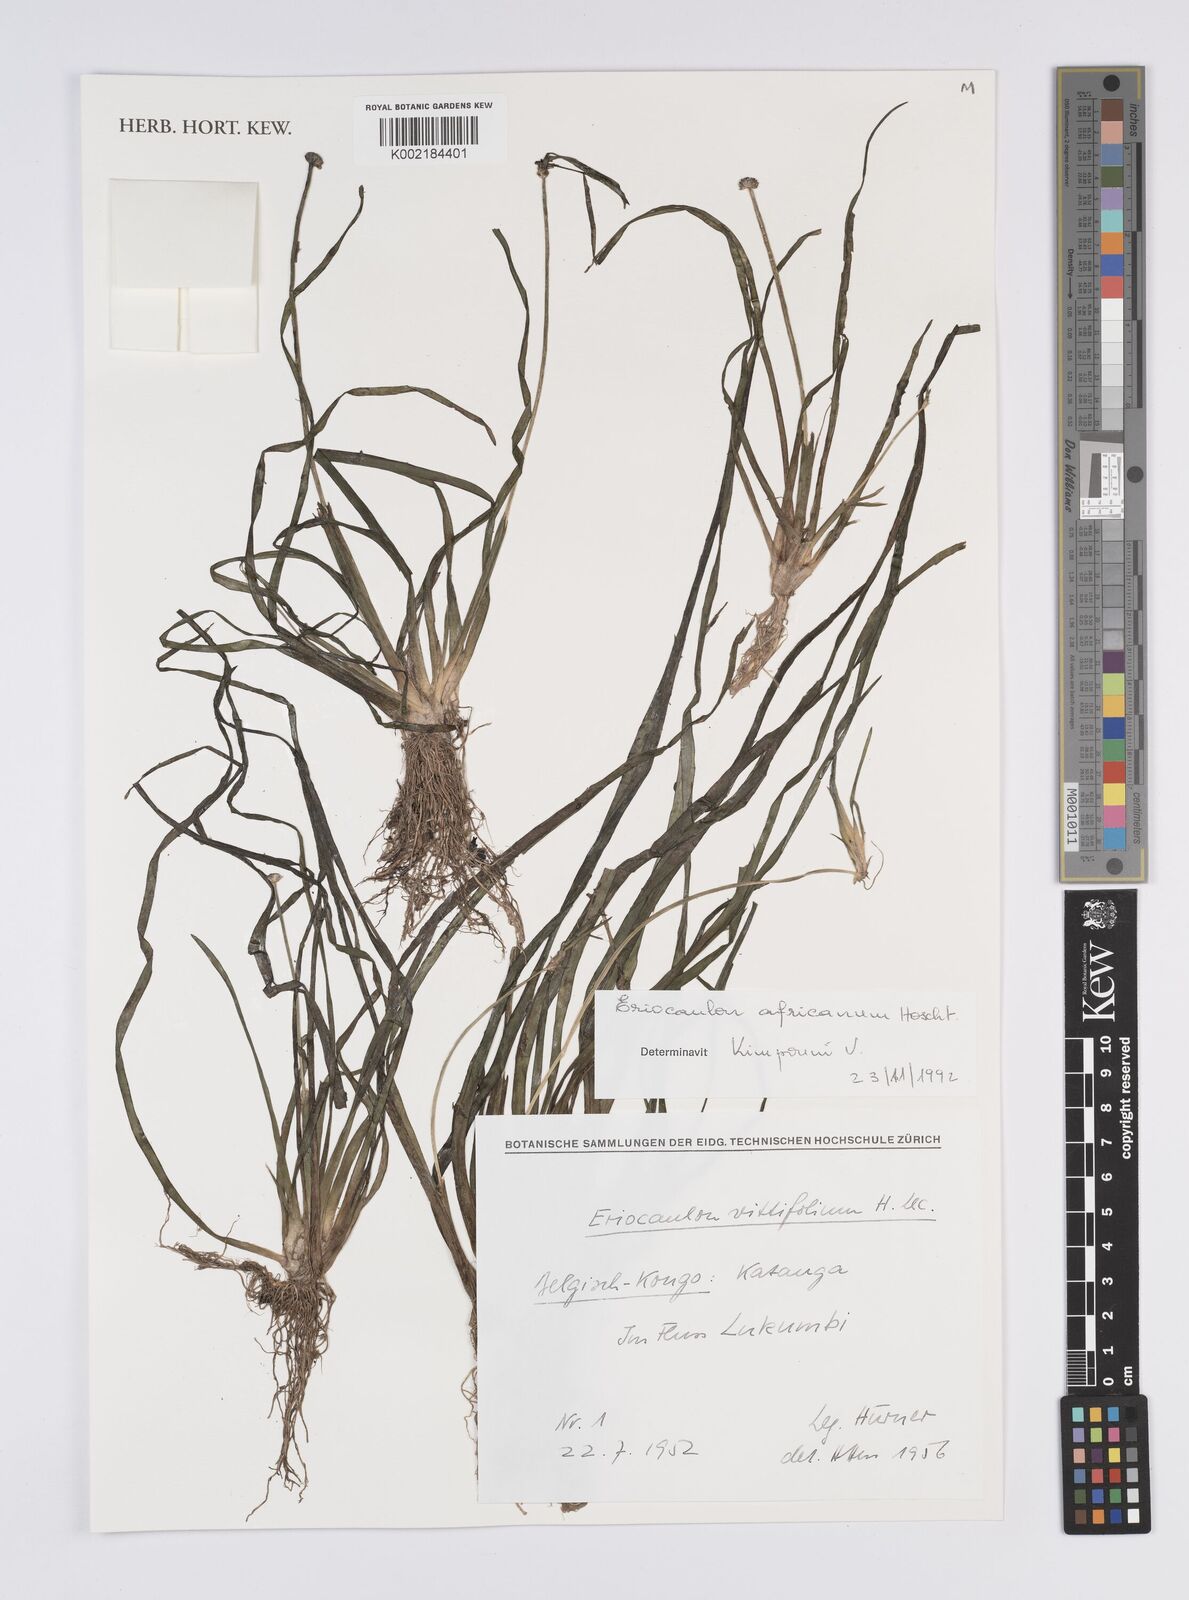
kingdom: Plantae
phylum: Tracheophyta
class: Liliopsida
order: Poales
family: Eriocaulaceae
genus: Eriocaulon
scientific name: Eriocaulon africanum
